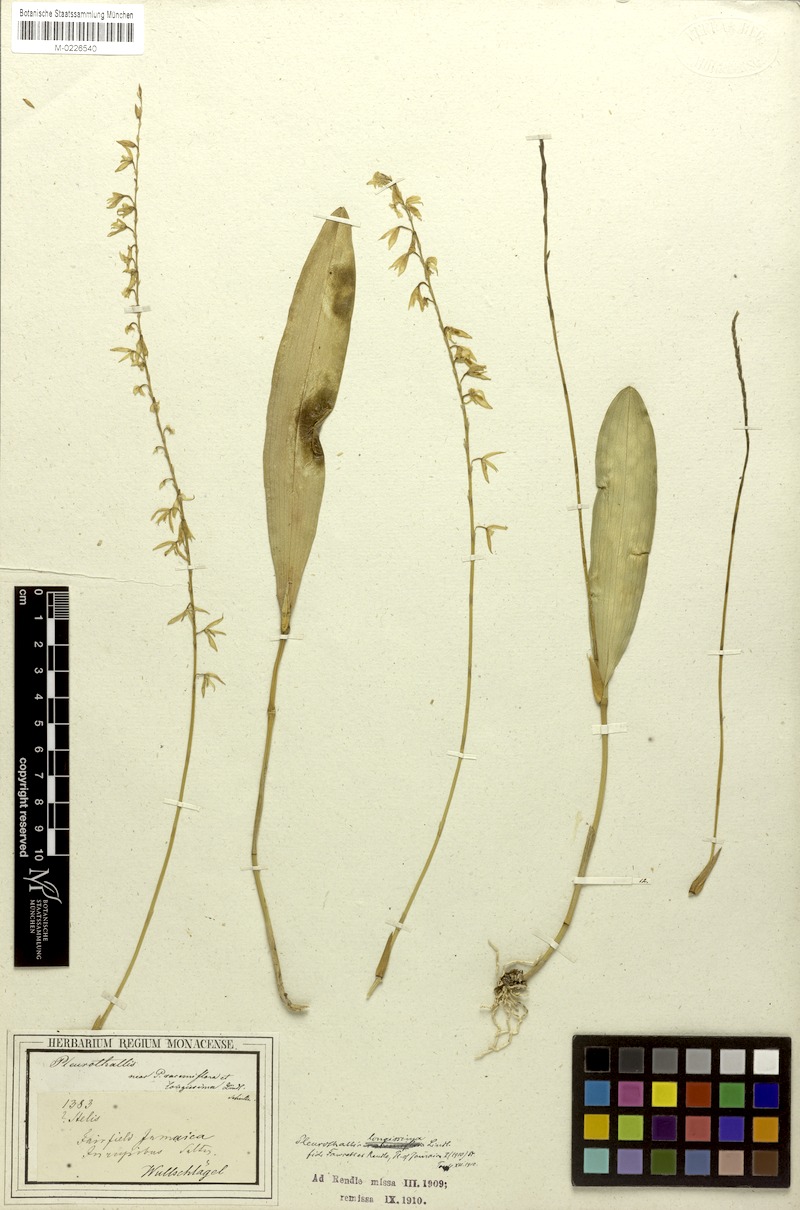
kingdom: Plantae
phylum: Tracheophyta
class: Liliopsida
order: Asparagales
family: Orchidaceae
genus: Pleurothallis
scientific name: Pleurothallis quadrifida
